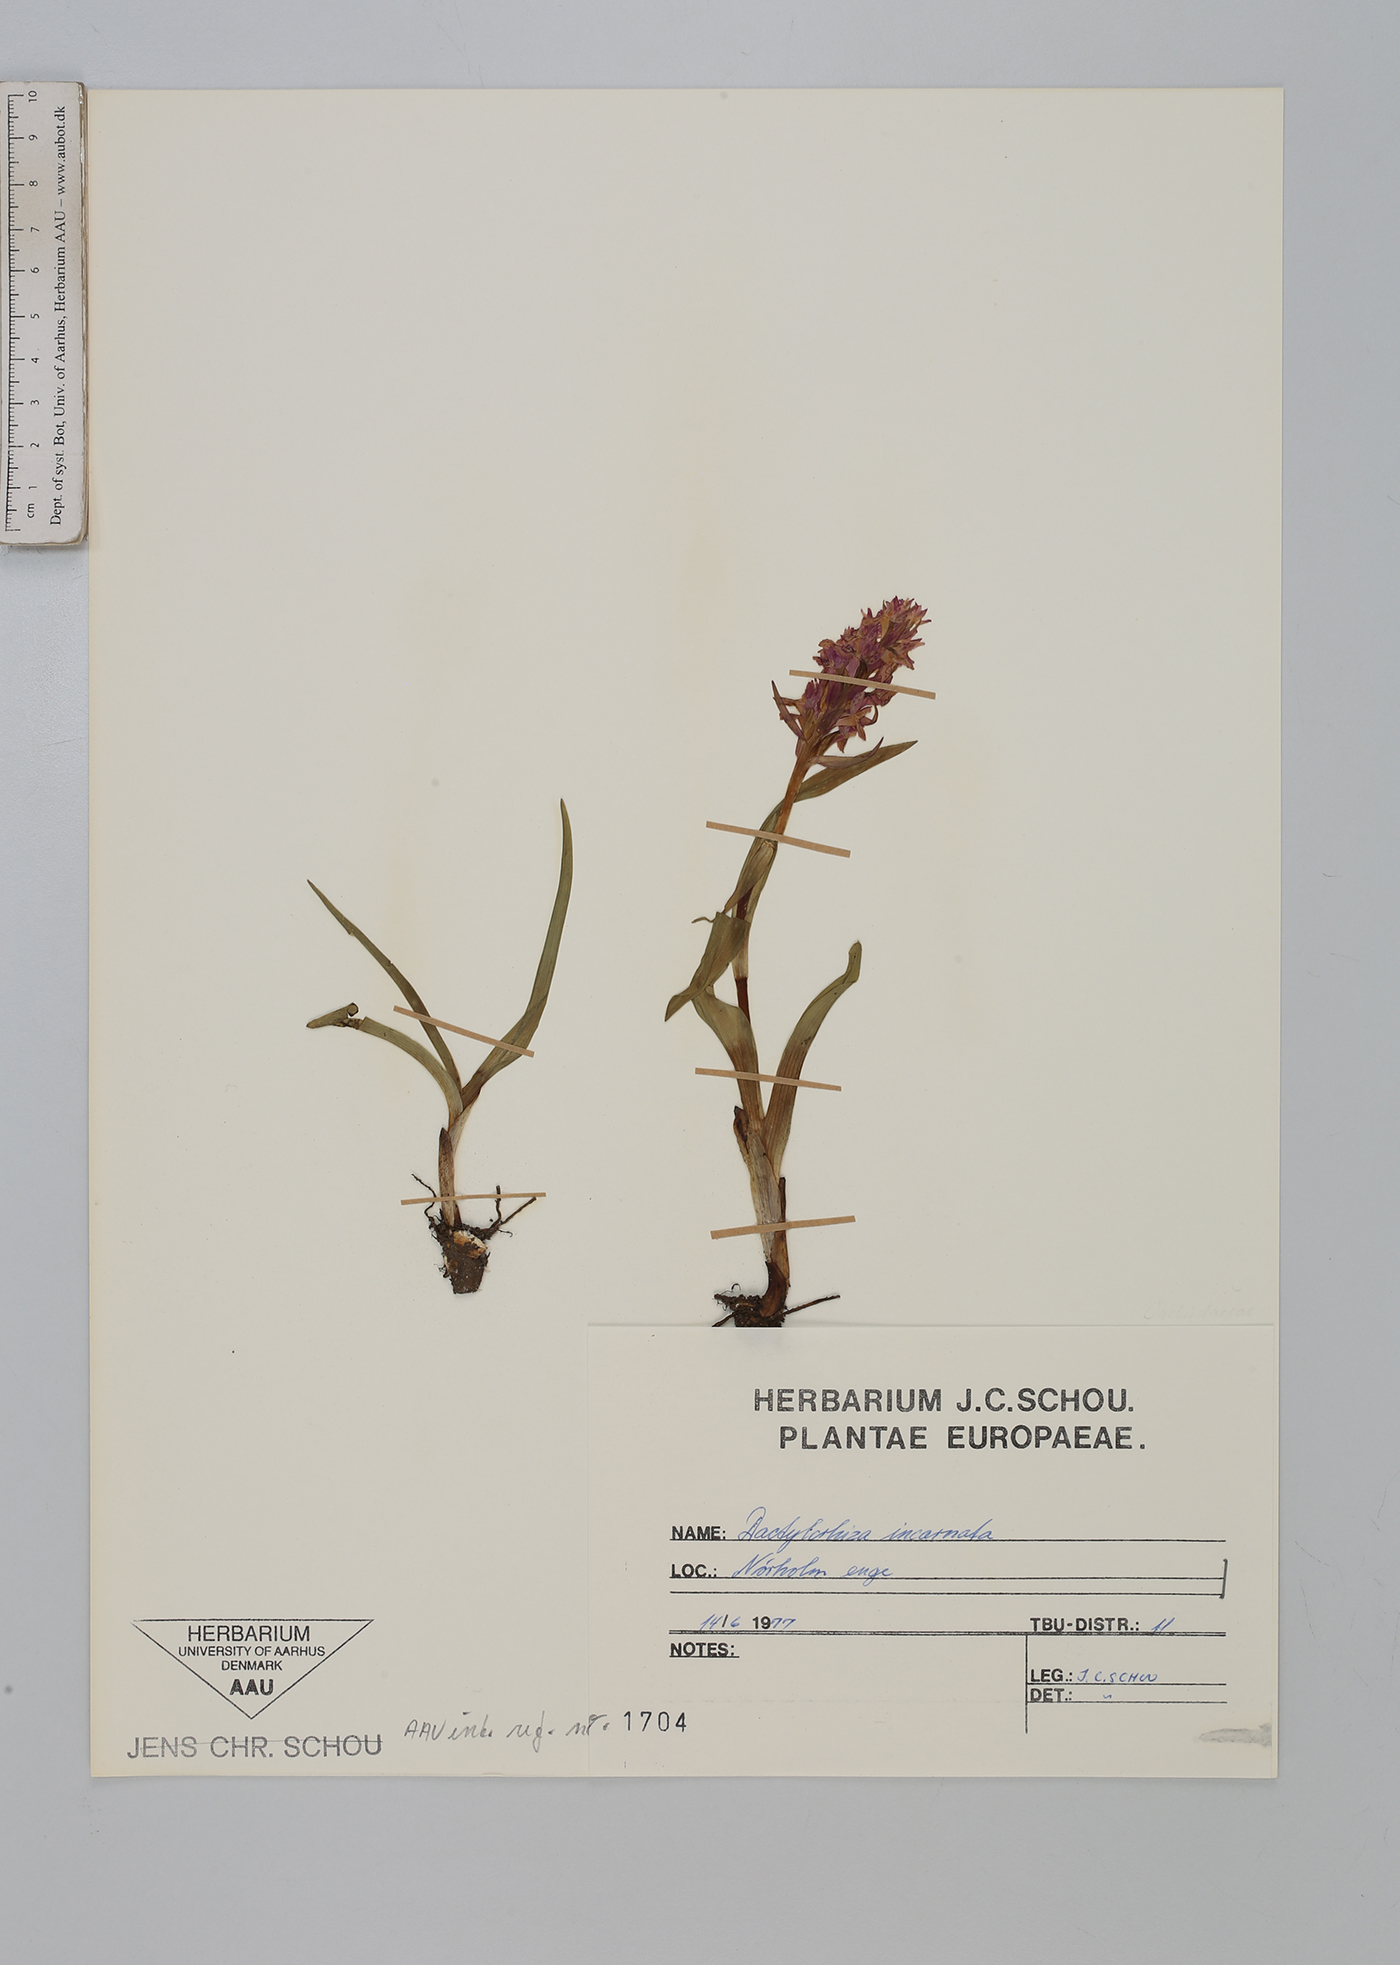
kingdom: Plantae
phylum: Tracheophyta
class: Liliopsida
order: Asparagales
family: Orchidaceae
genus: Dactylorhiza
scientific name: Dactylorhiza incarnata
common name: Early marsh-orchid
